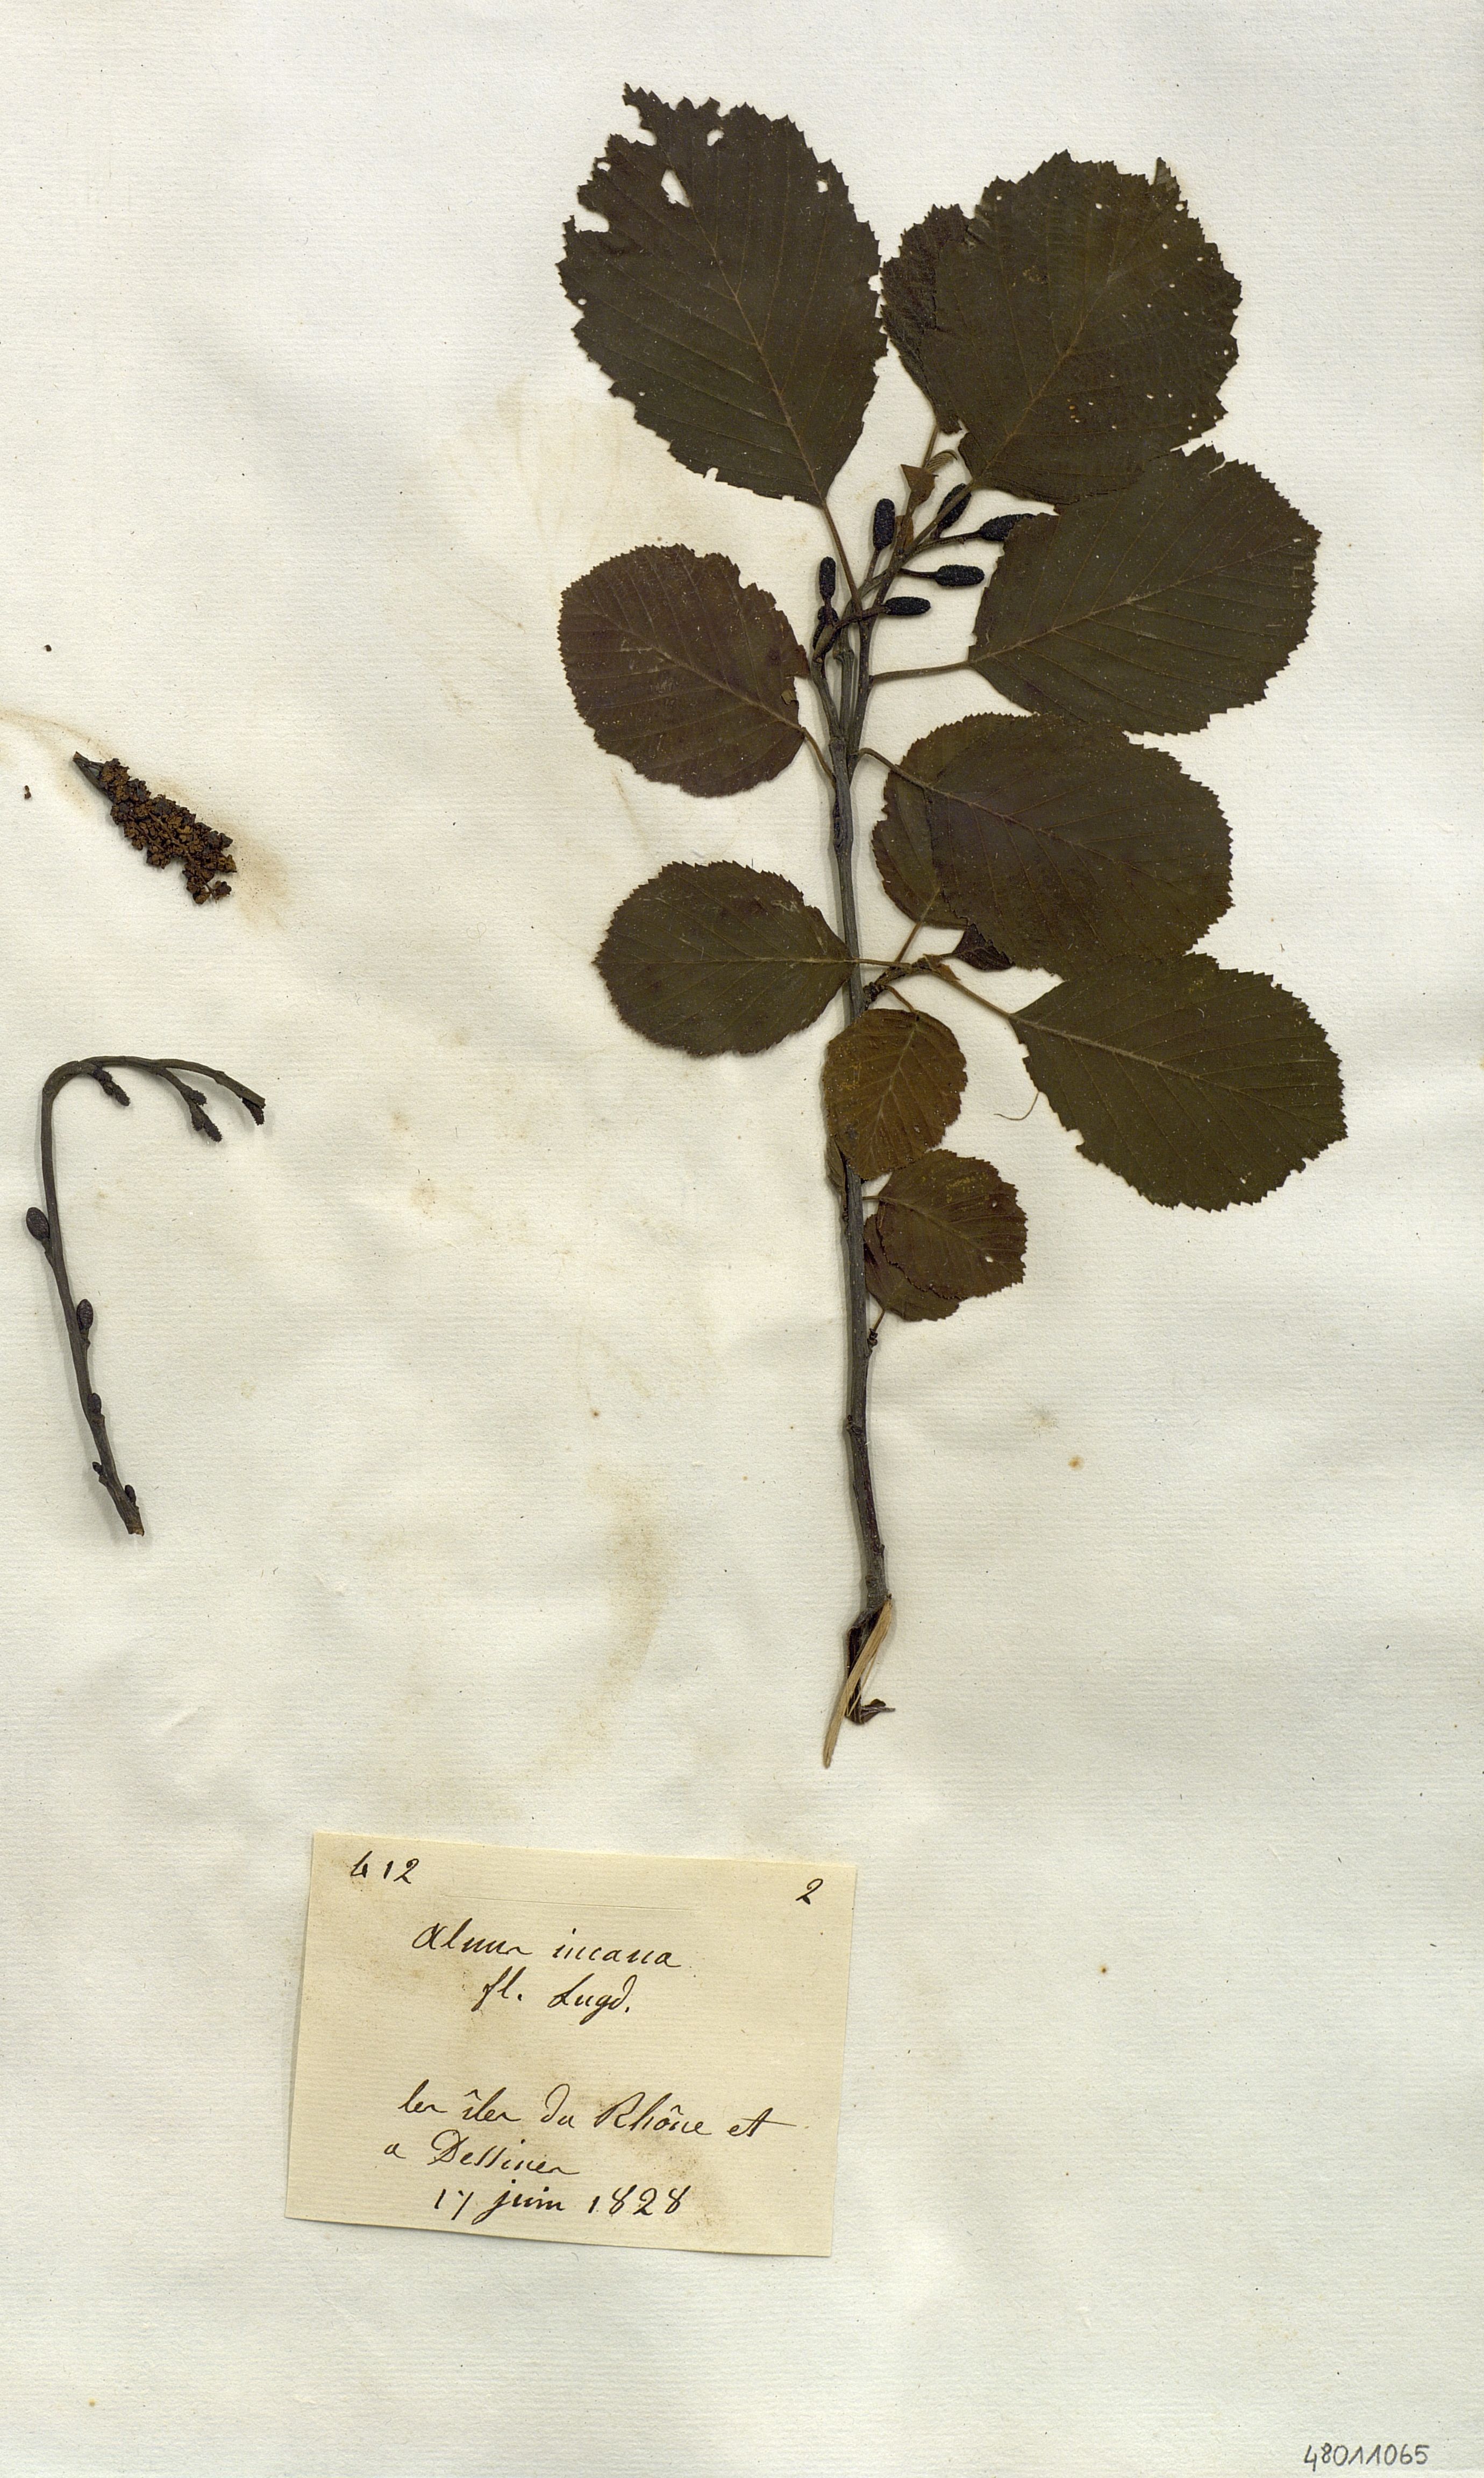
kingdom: Plantae
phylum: Tracheophyta
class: Magnoliopsida
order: Fagales
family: Betulaceae
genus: Alnus
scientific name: Alnus incana
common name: Grey alder
